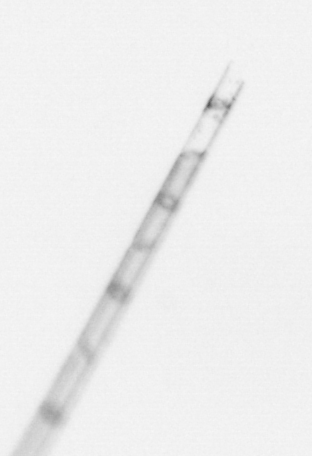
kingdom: Chromista
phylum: Ochrophyta
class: Bacillariophyceae
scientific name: Bacillariophyceae
